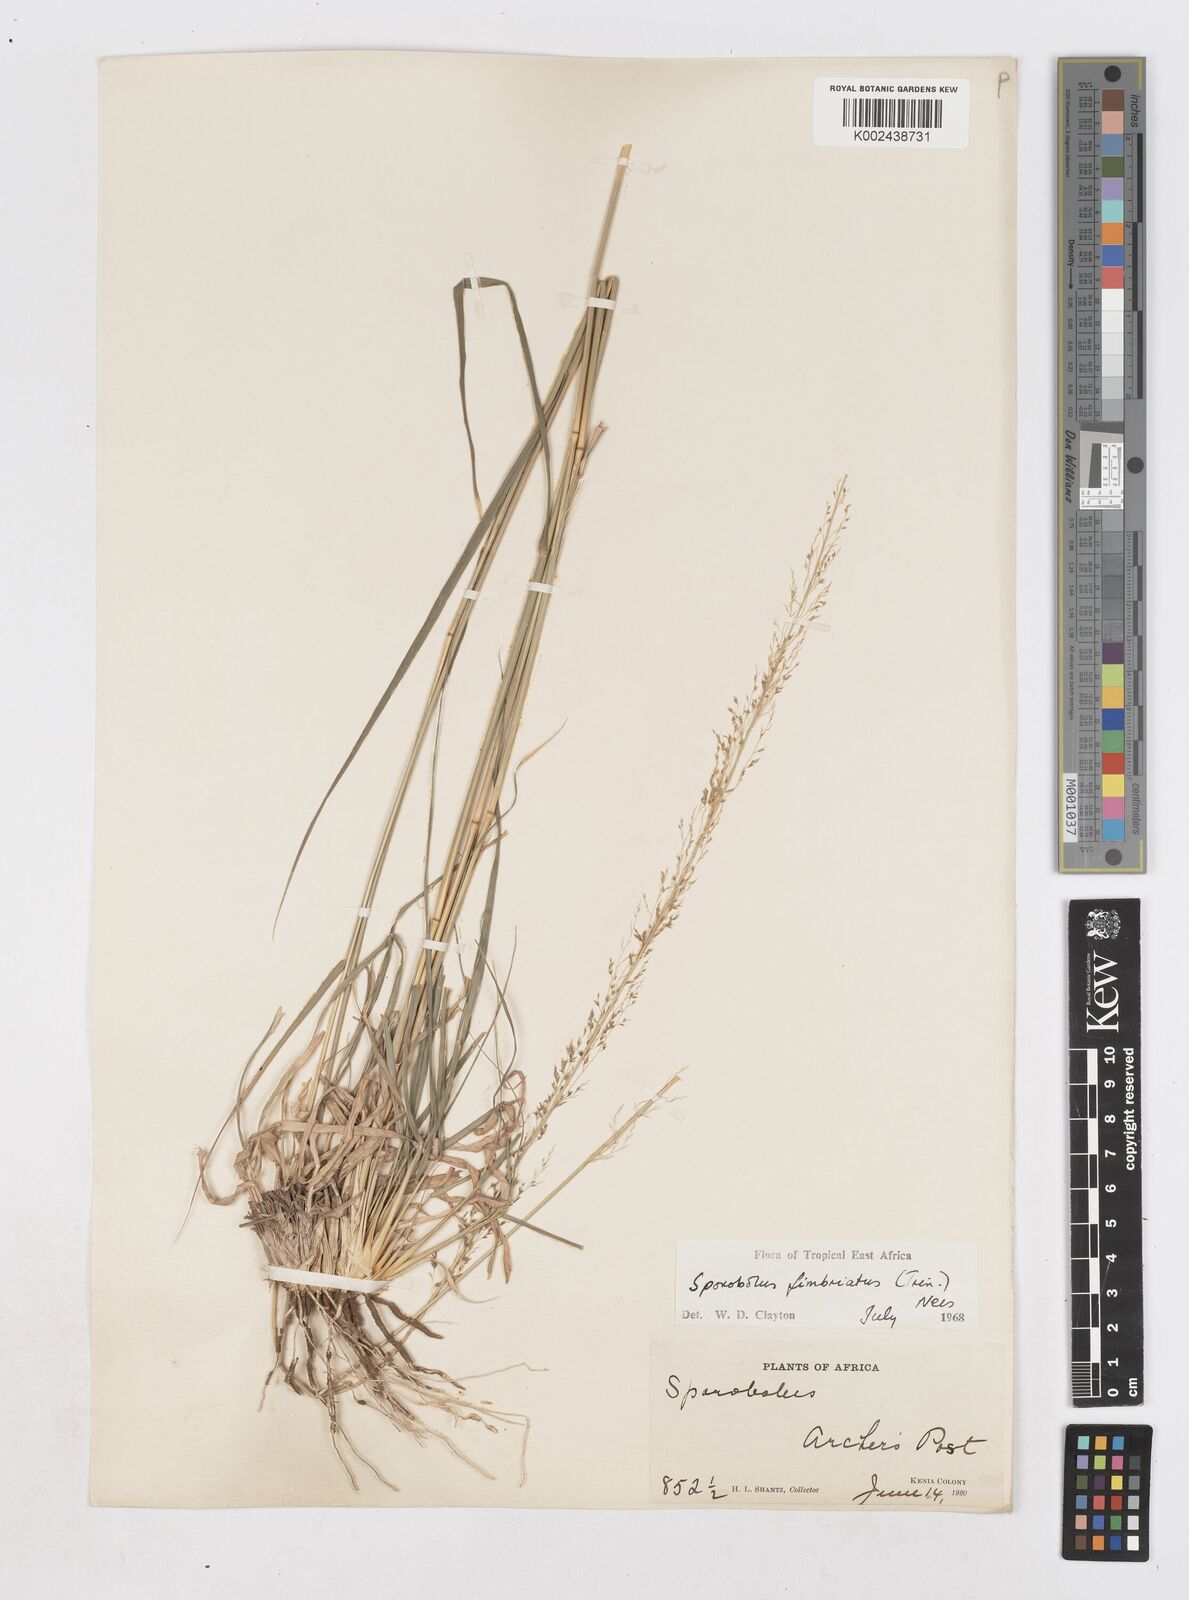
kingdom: Plantae
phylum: Tracheophyta
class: Liliopsida
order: Poales
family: Poaceae
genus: Sporobolus
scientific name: Sporobolus fimbriatus
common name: Fringed dropseed
